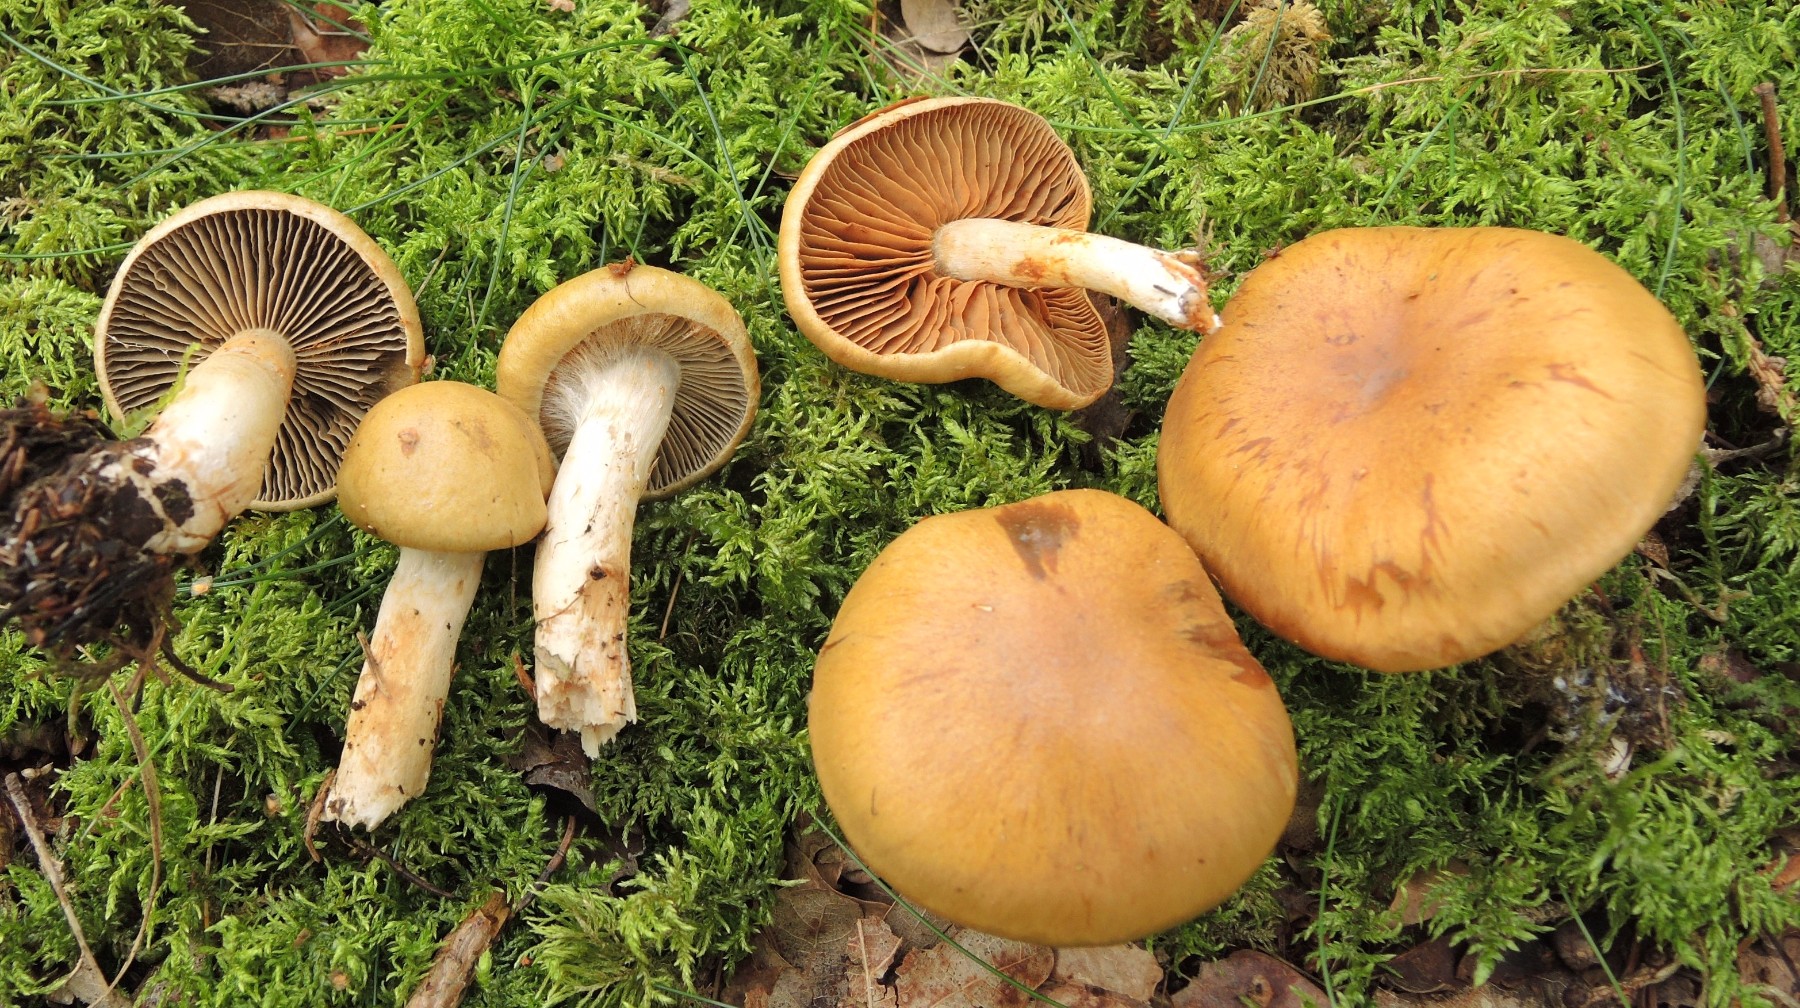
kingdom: Fungi
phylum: Basidiomycota
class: Agaricomycetes
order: Agaricales
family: Cortinariaceae
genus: Cortinarius
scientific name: Cortinarius subtortus
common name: olivengul slørhat
